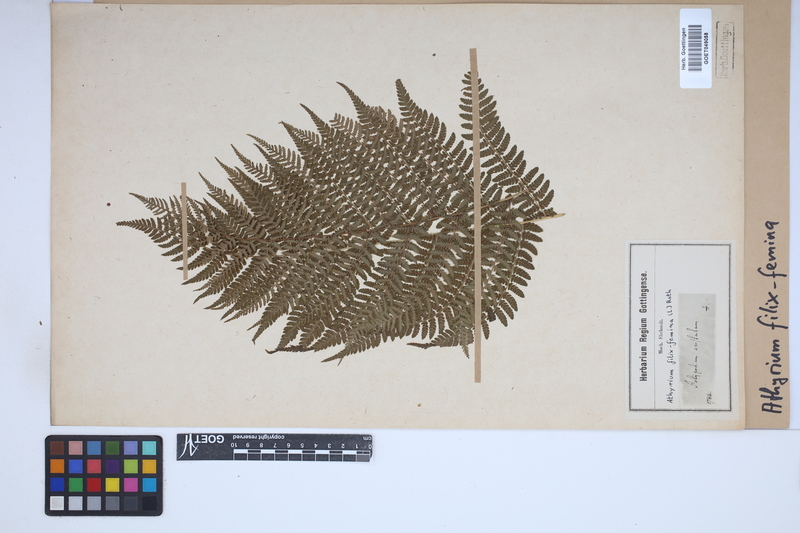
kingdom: Plantae
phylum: Tracheophyta
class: Polypodiopsida
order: Polypodiales
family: Athyriaceae
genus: Athyrium
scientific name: Athyrium filix-femina
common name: Lady fern
